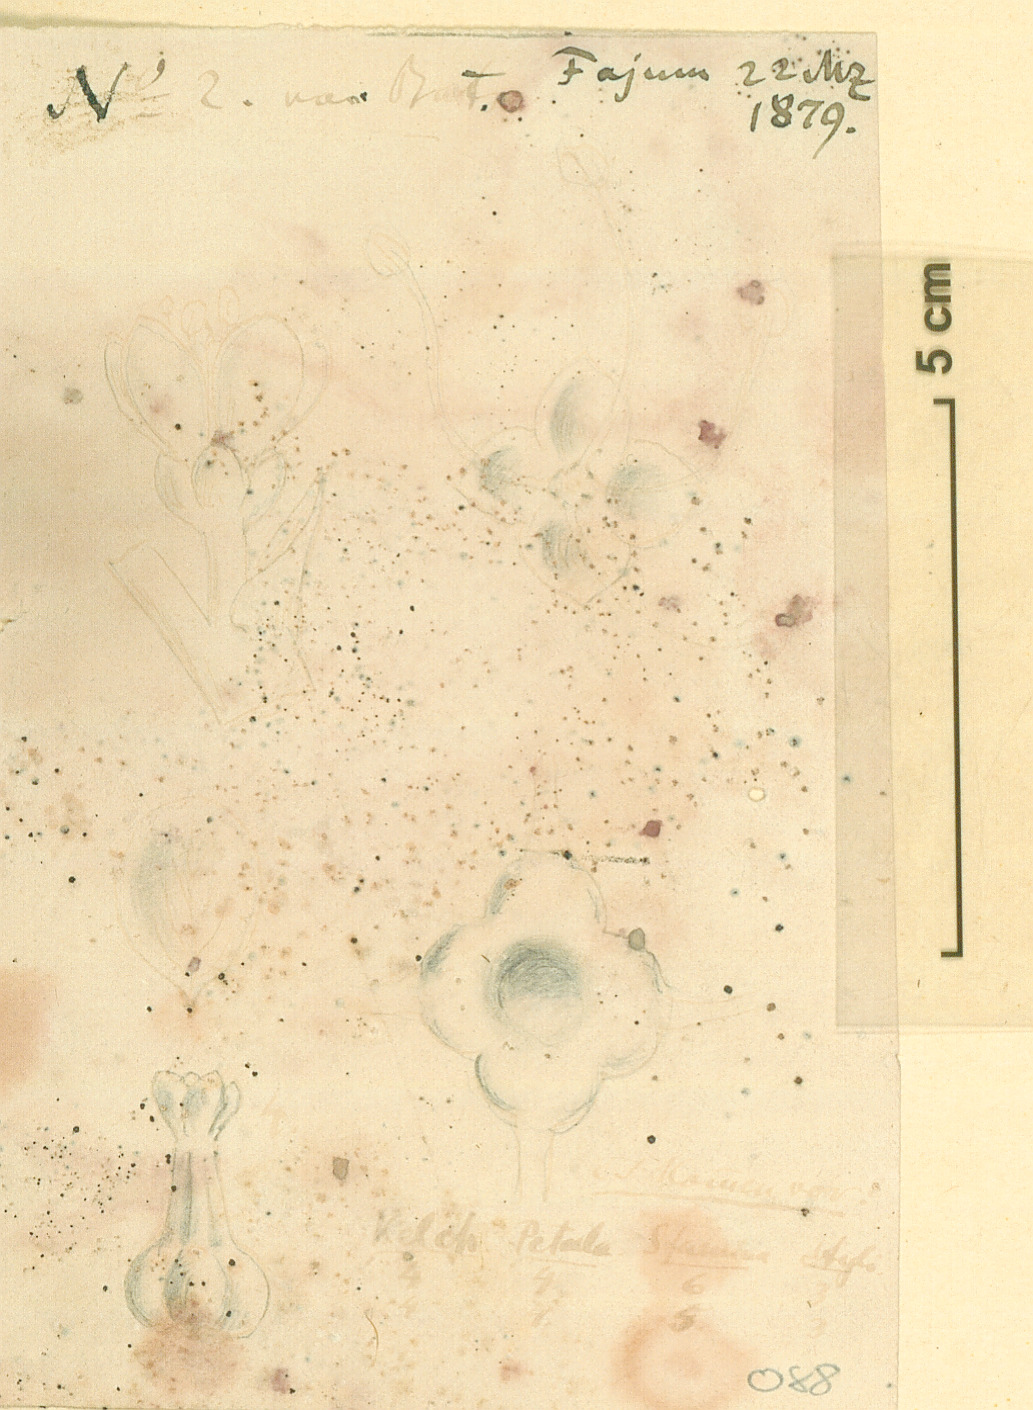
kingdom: Plantae
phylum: Tracheophyta
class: Magnoliopsida
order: Caryophyllales
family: Tamaricaceae
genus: Tamarix
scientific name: Tamarix
